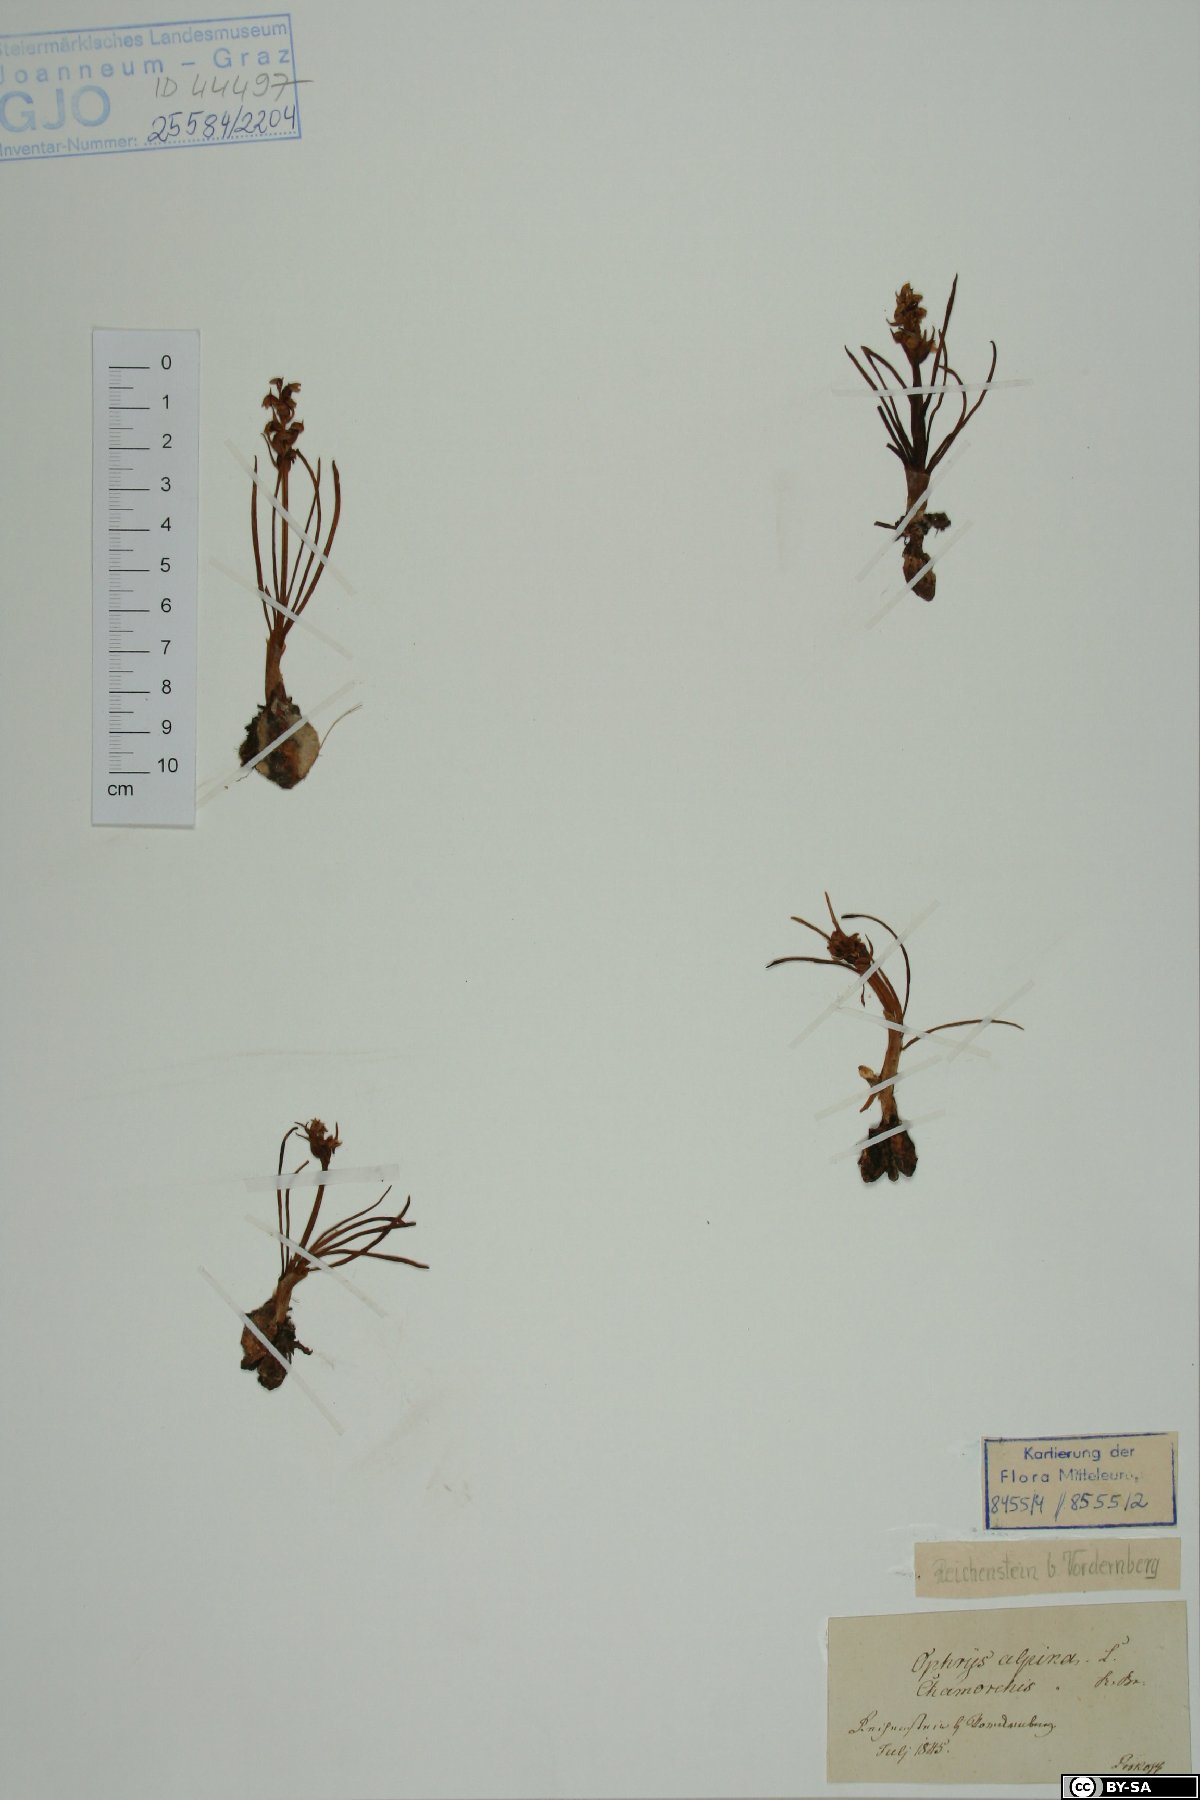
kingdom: Plantae
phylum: Tracheophyta
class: Liliopsida
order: Asparagales
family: Orchidaceae
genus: Chamorchis
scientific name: Chamorchis alpina
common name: Alpine chamorchis
